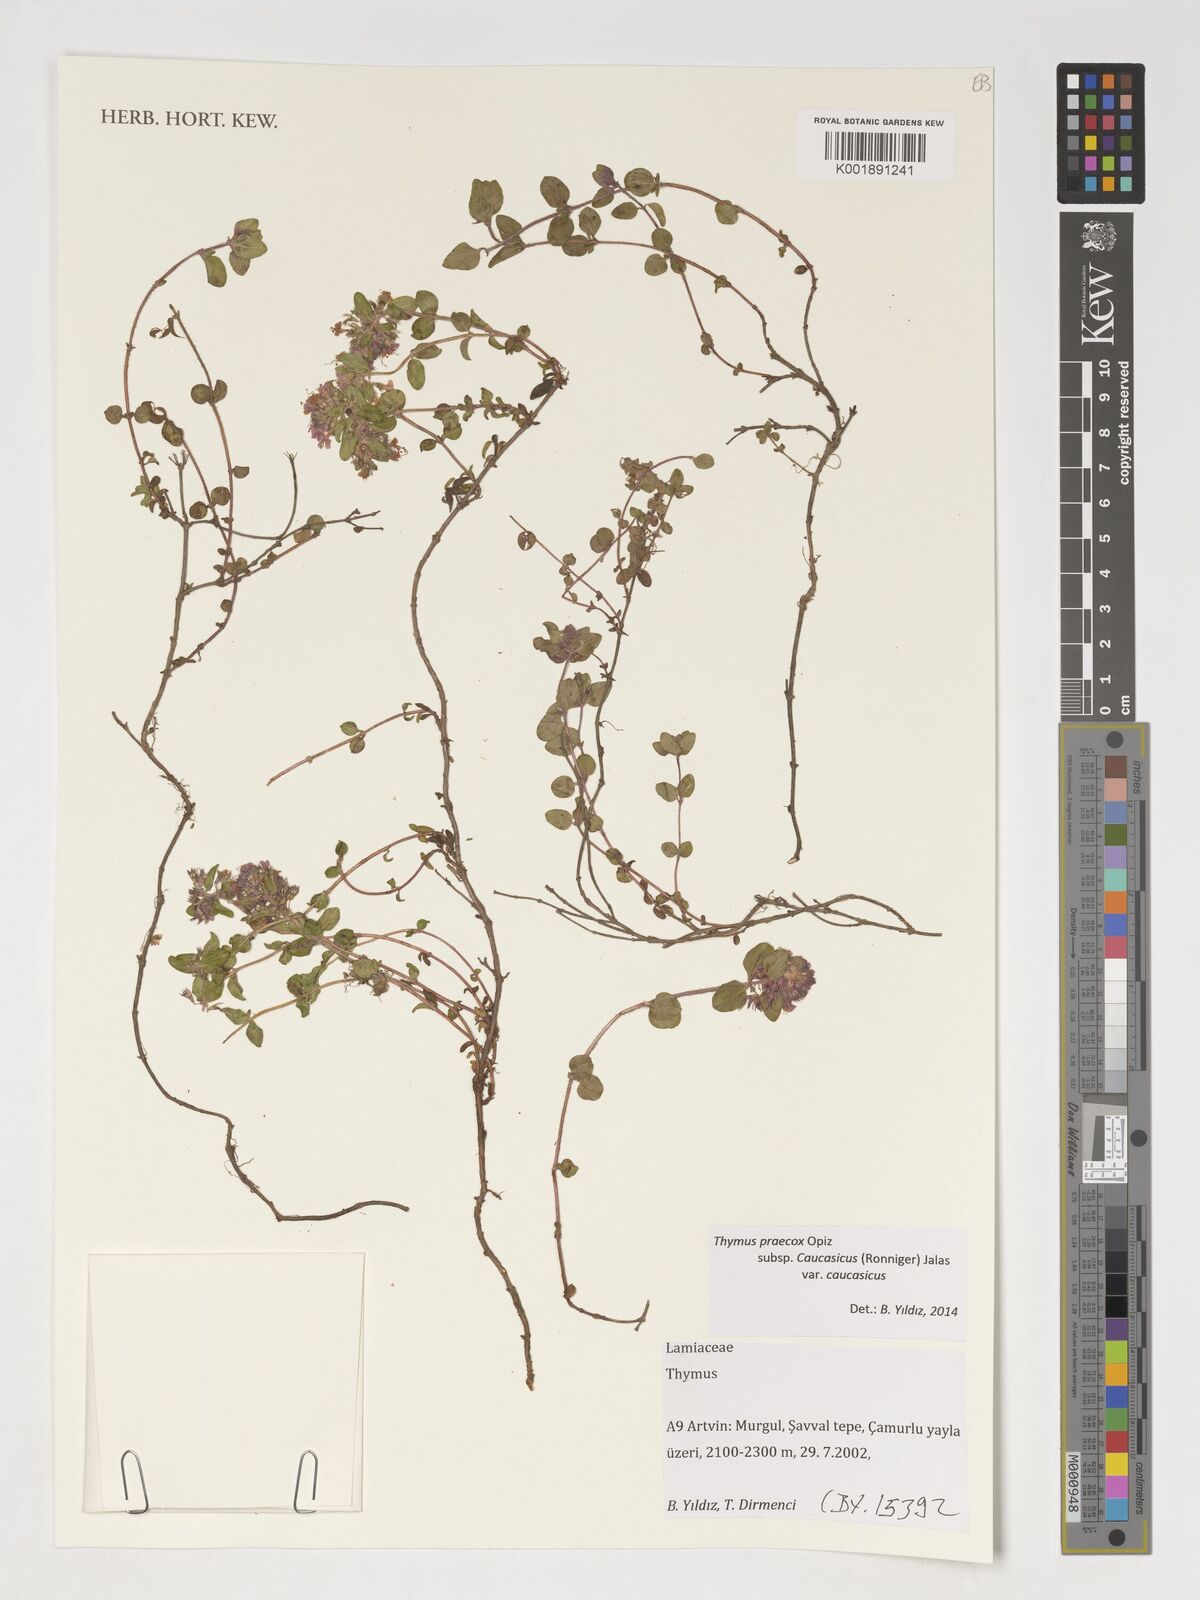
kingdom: Plantae
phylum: Tracheophyta
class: Magnoliopsida
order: Lamiales
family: Lamiaceae
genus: Thymus
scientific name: Thymus
